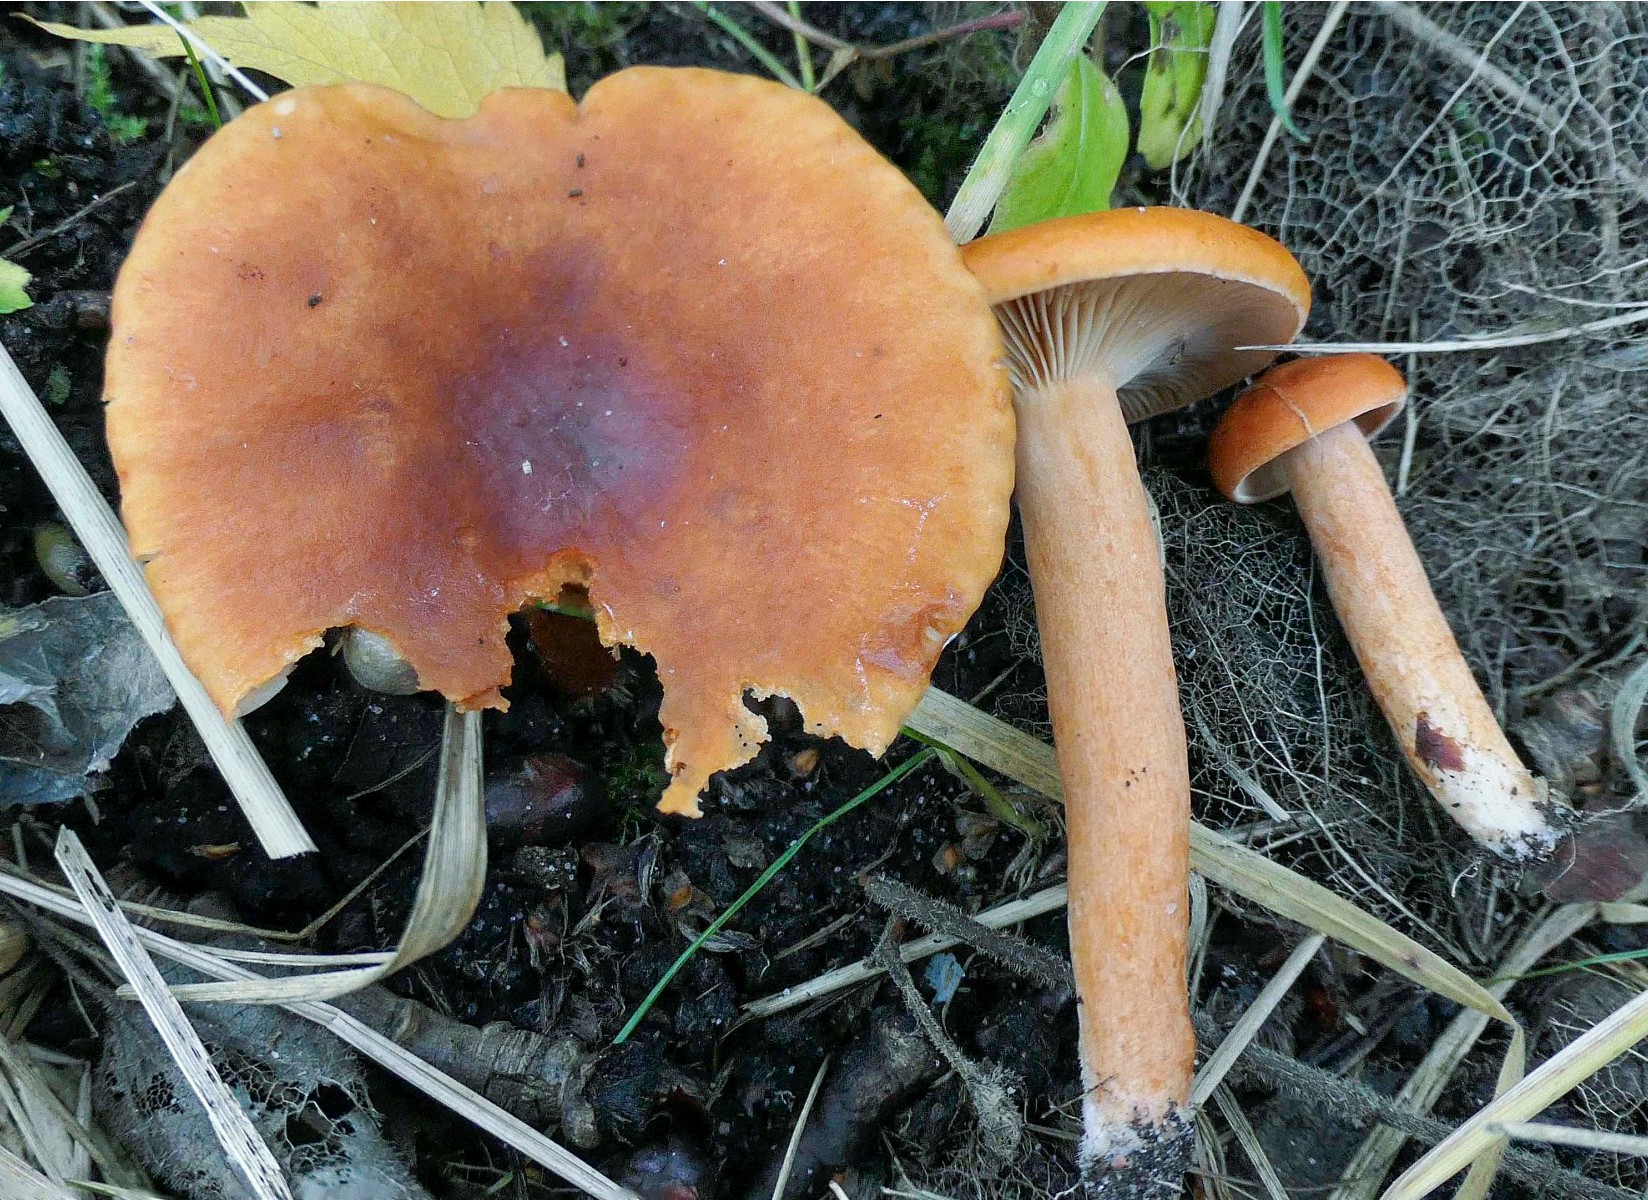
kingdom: Fungi
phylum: Basidiomycota
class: Agaricomycetes
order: Russulales
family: Russulaceae
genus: Lactarius
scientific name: Lactarius aurantiacus
